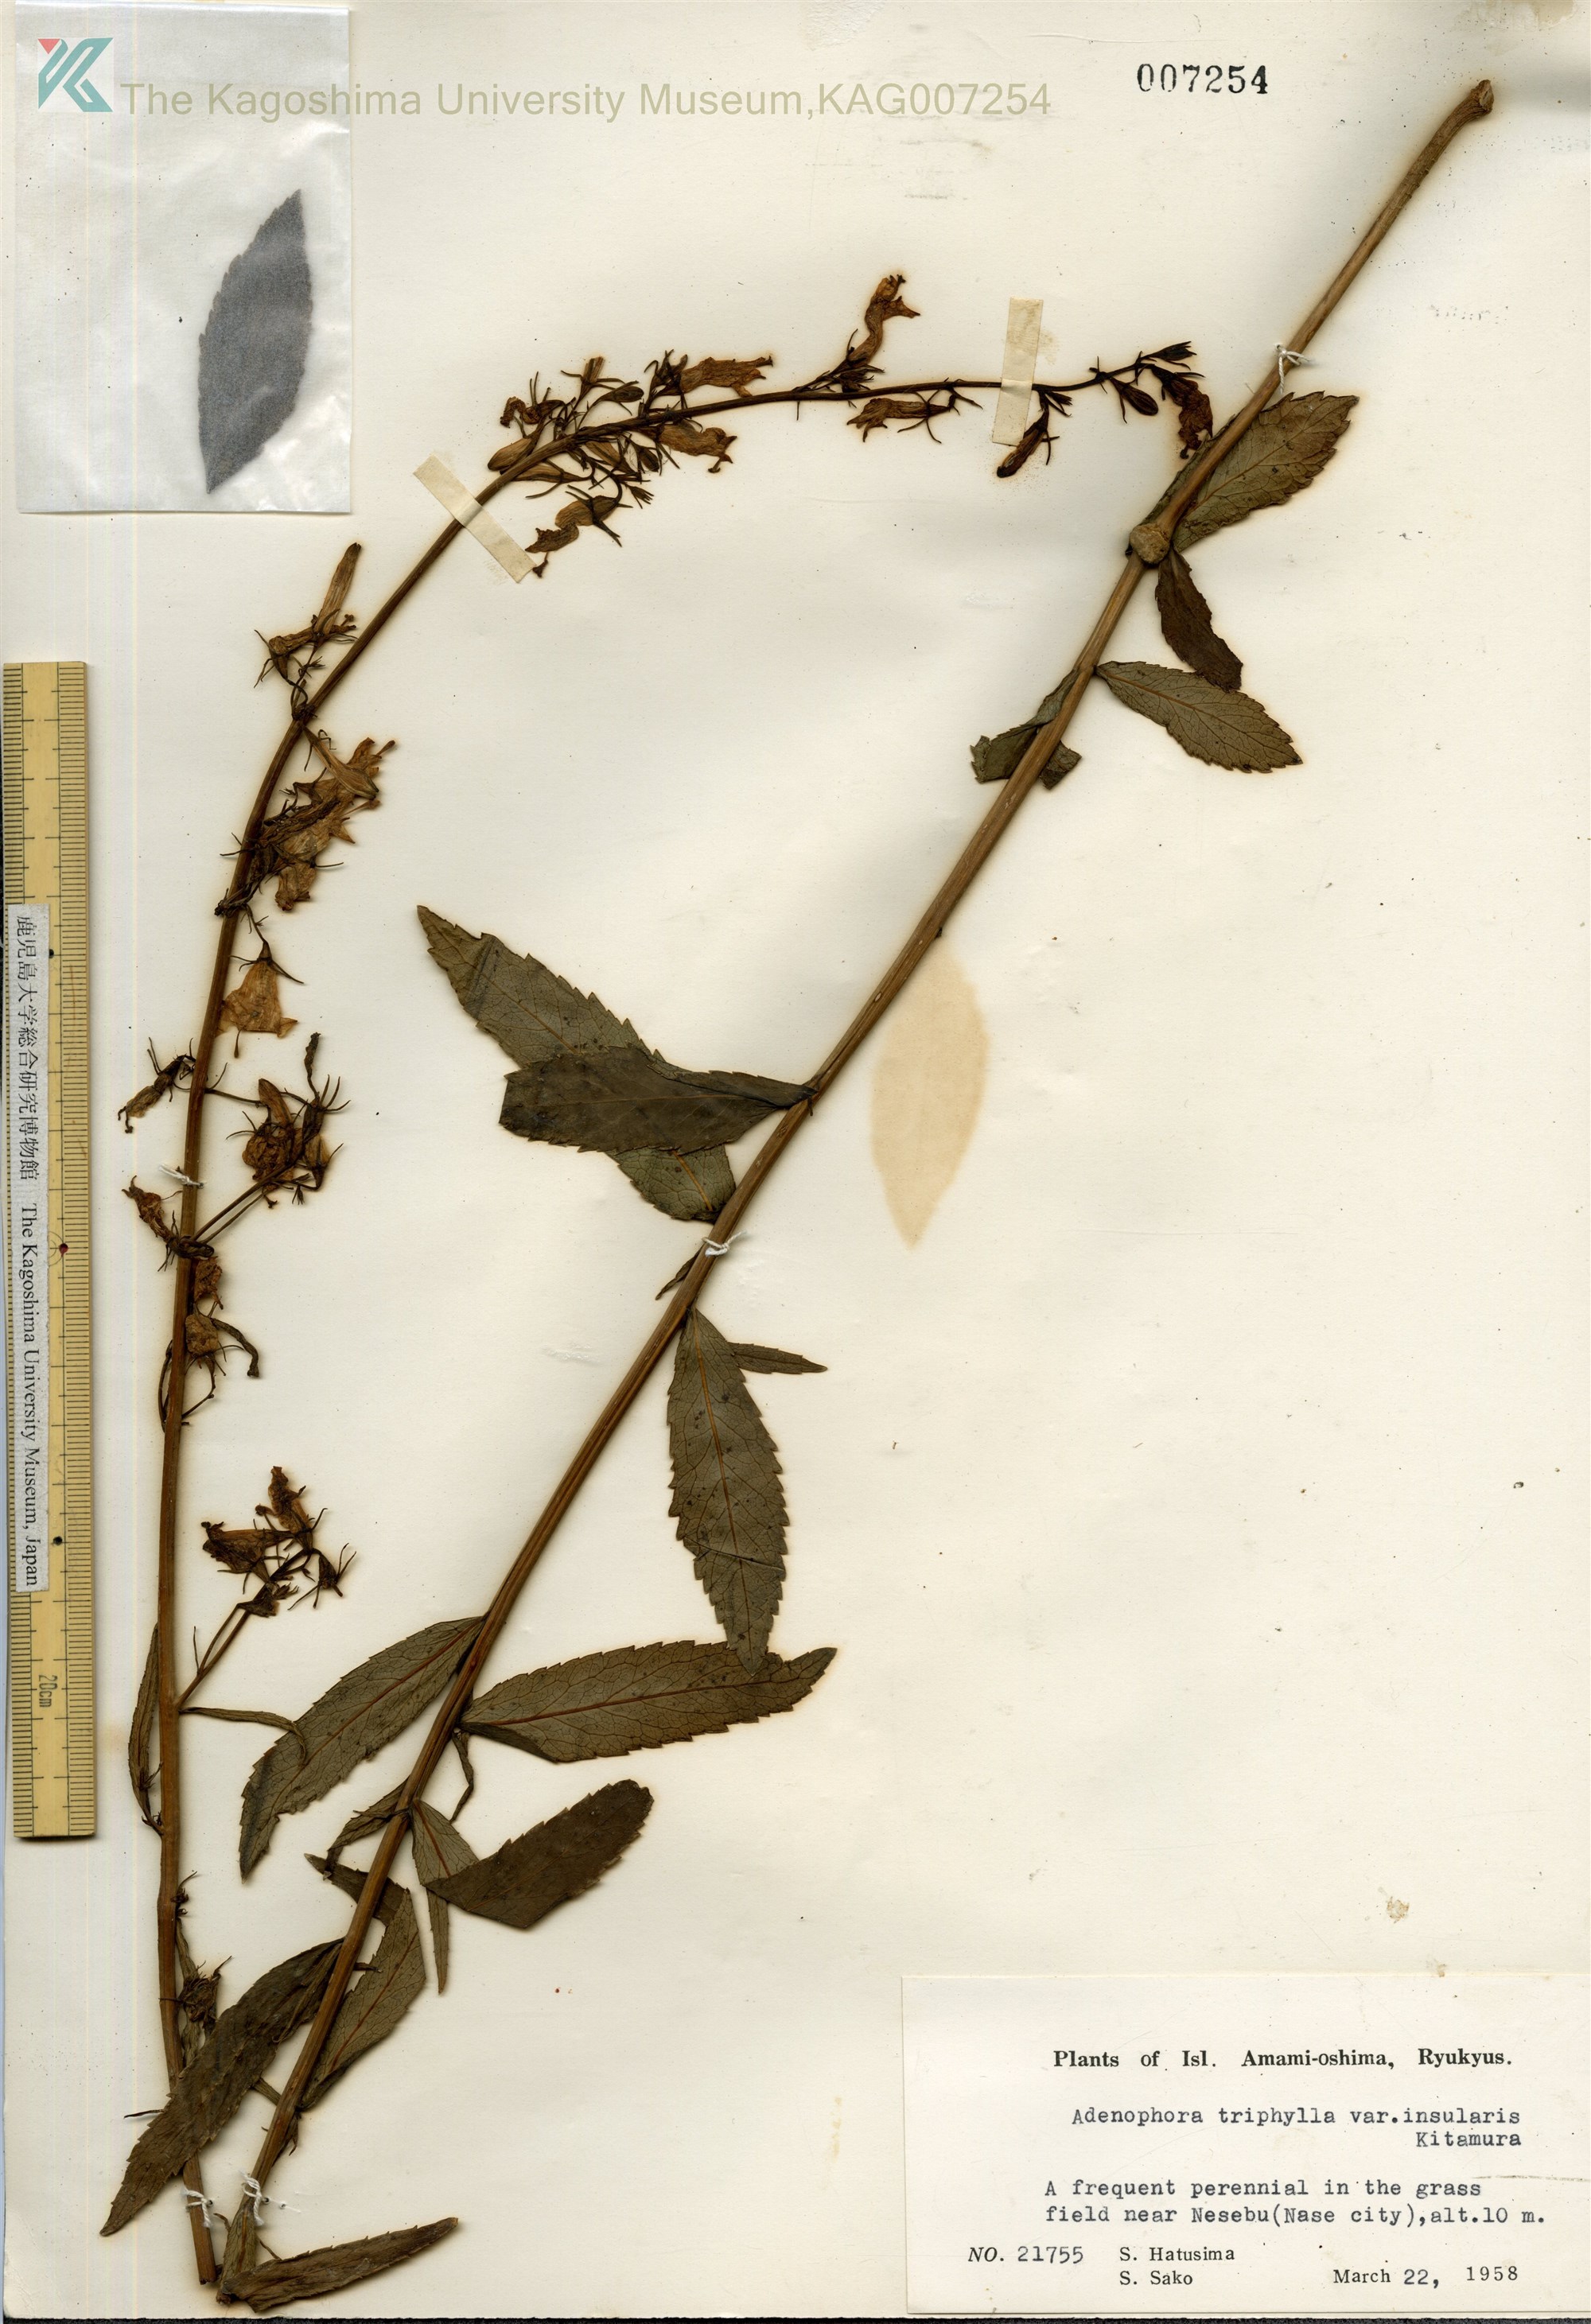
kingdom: Plantae
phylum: Tracheophyta
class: Magnoliopsida
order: Asterales
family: Campanulaceae
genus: Adenophora
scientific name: Adenophora tashiroi
